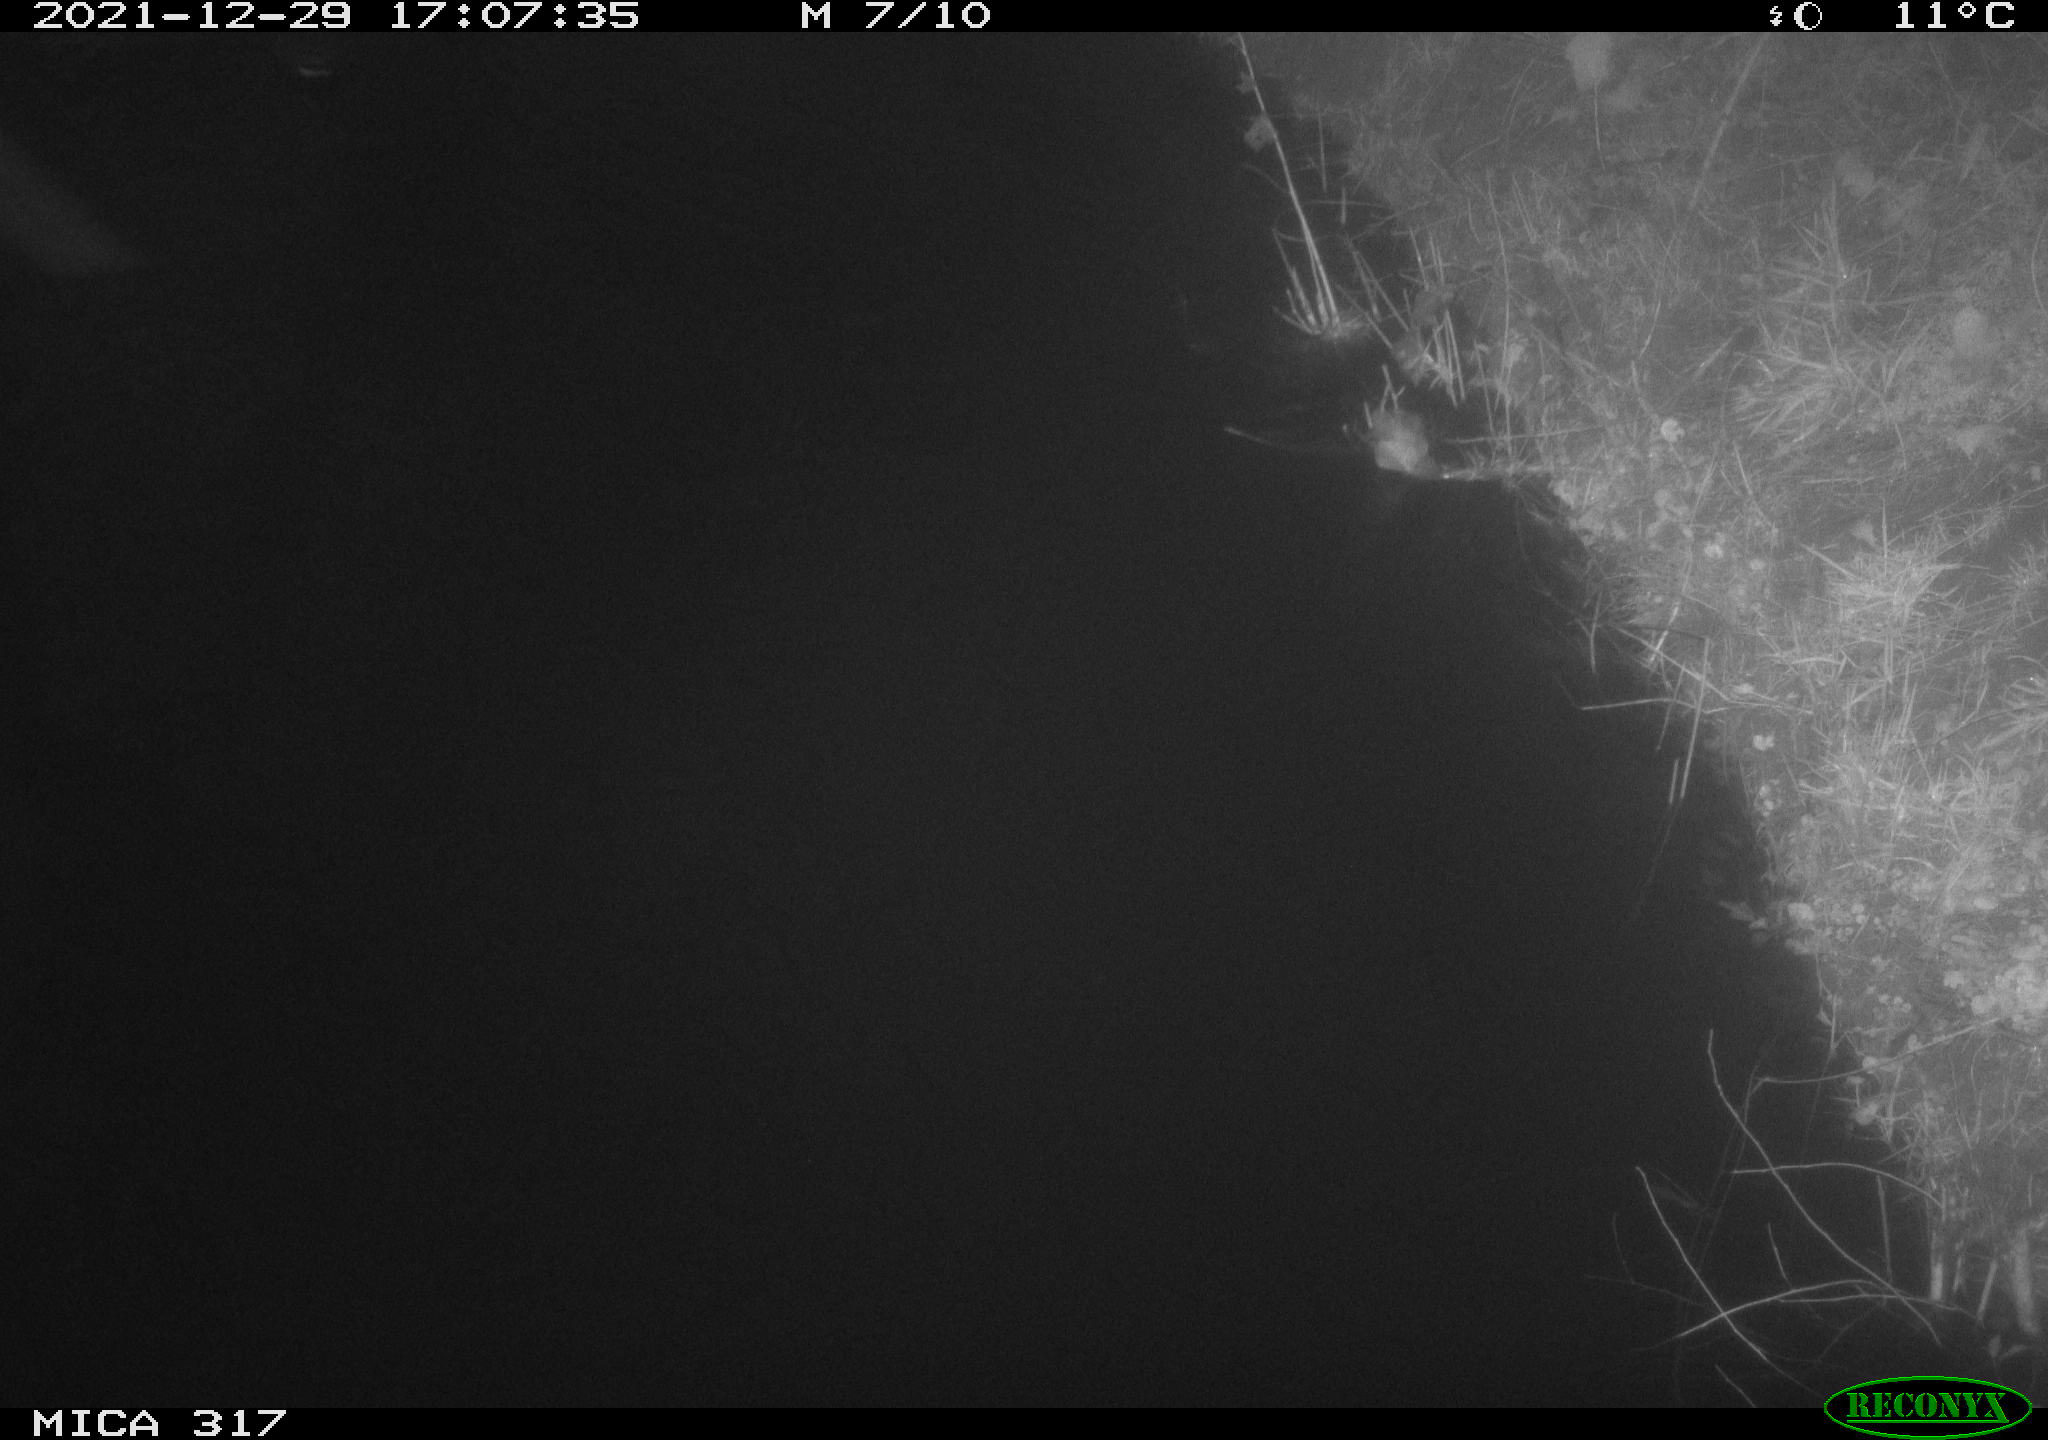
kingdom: Animalia
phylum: Chordata
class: Aves
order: Gruiformes
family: Rallidae
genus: Gallinula
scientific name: Gallinula chloropus
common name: Common moorhen
